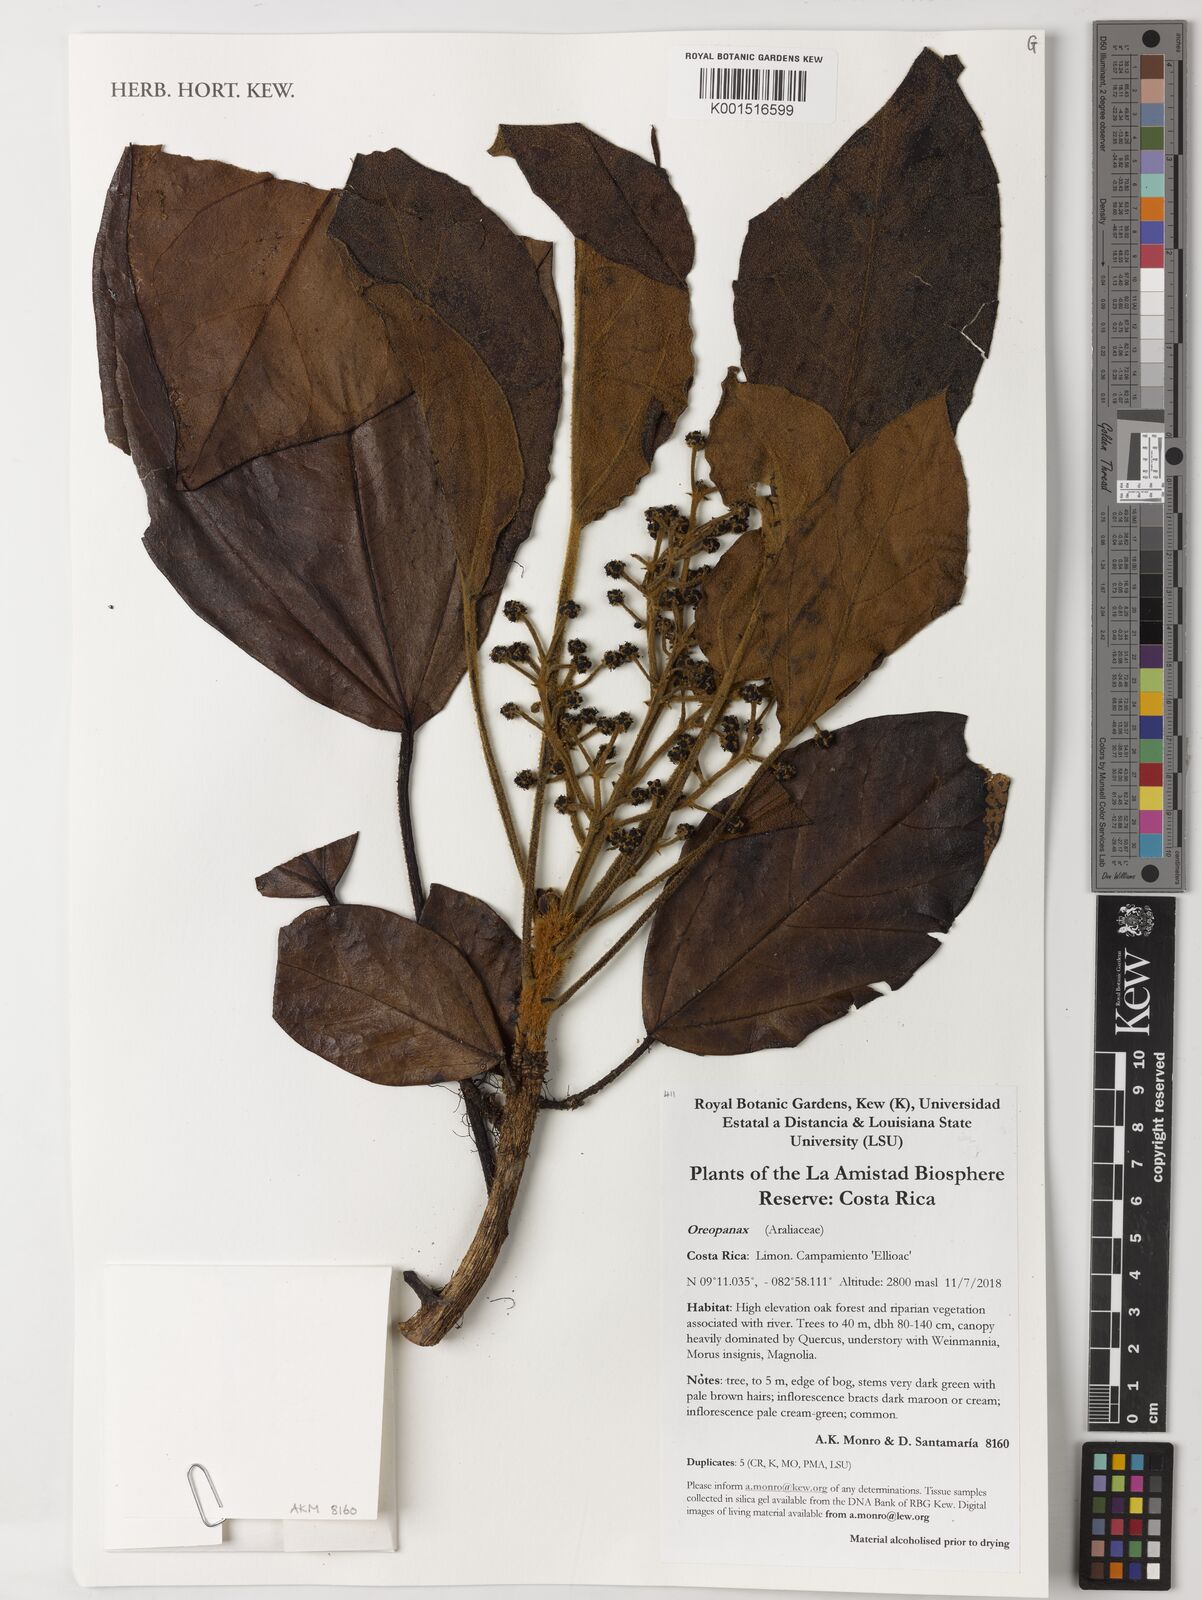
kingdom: Plantae
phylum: Tracheophyta
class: Magnoliopsida
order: Apiales
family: Araliaceae
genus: Oreopanax
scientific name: Oreopanax
